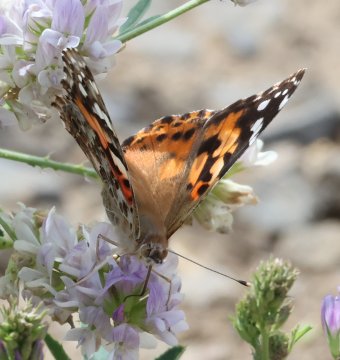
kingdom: Animalia
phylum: Arthropoda
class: Insecta
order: Lepidoptera
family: Nymphalidae
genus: Vanessa
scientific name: Vanessa cardui
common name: Painted Lady
